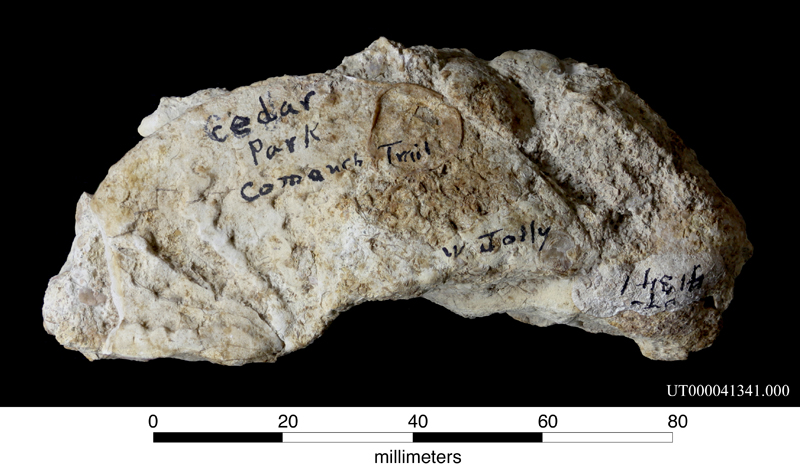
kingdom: Animalia
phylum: Mollusca
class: Cephalopoda
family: Engonoceratidae
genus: Engonoceras
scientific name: Engonoceras
